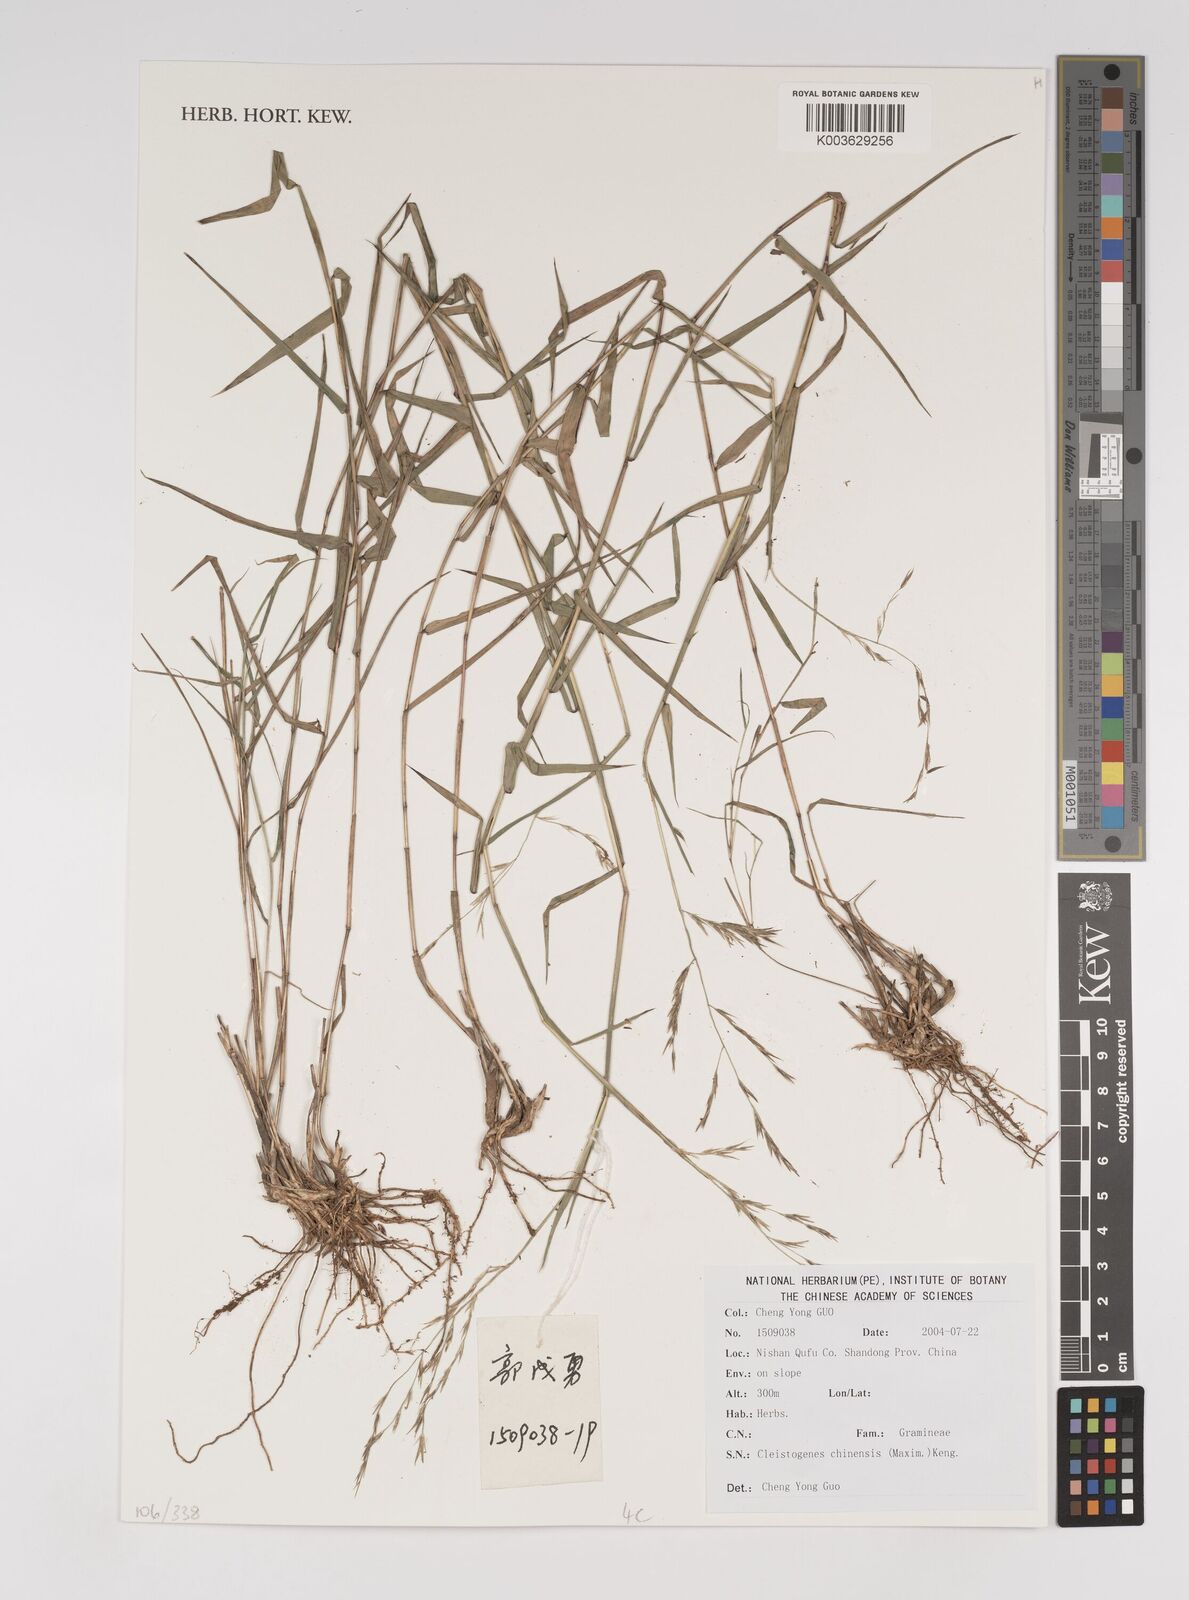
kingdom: Plantae
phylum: Tracheophyta
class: Liliopsida
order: Poales
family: Poaceae
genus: Cleistogenes
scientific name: Cleistogenes hackelii
